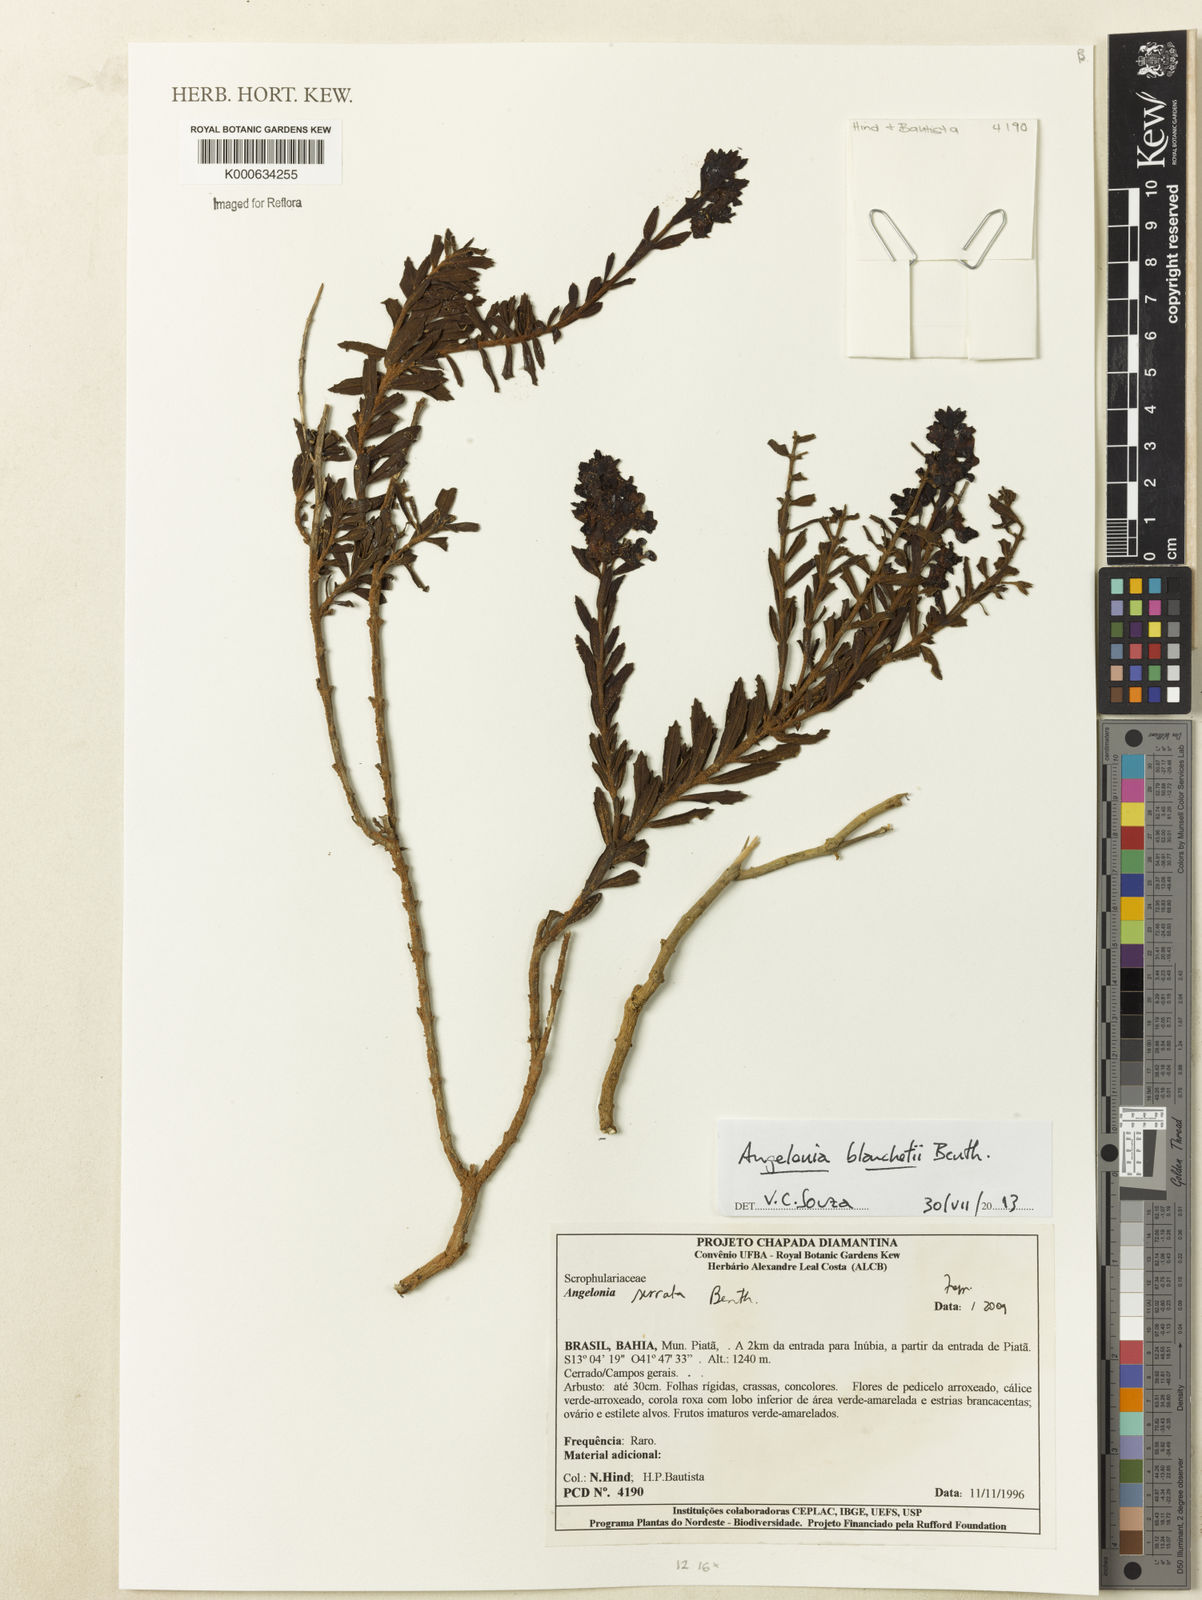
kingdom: Plantae
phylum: Tracheophyta
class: Magnoliopsida
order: Lamiales
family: Plantaginaceae
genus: Angelonia
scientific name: Angelonia arguta
